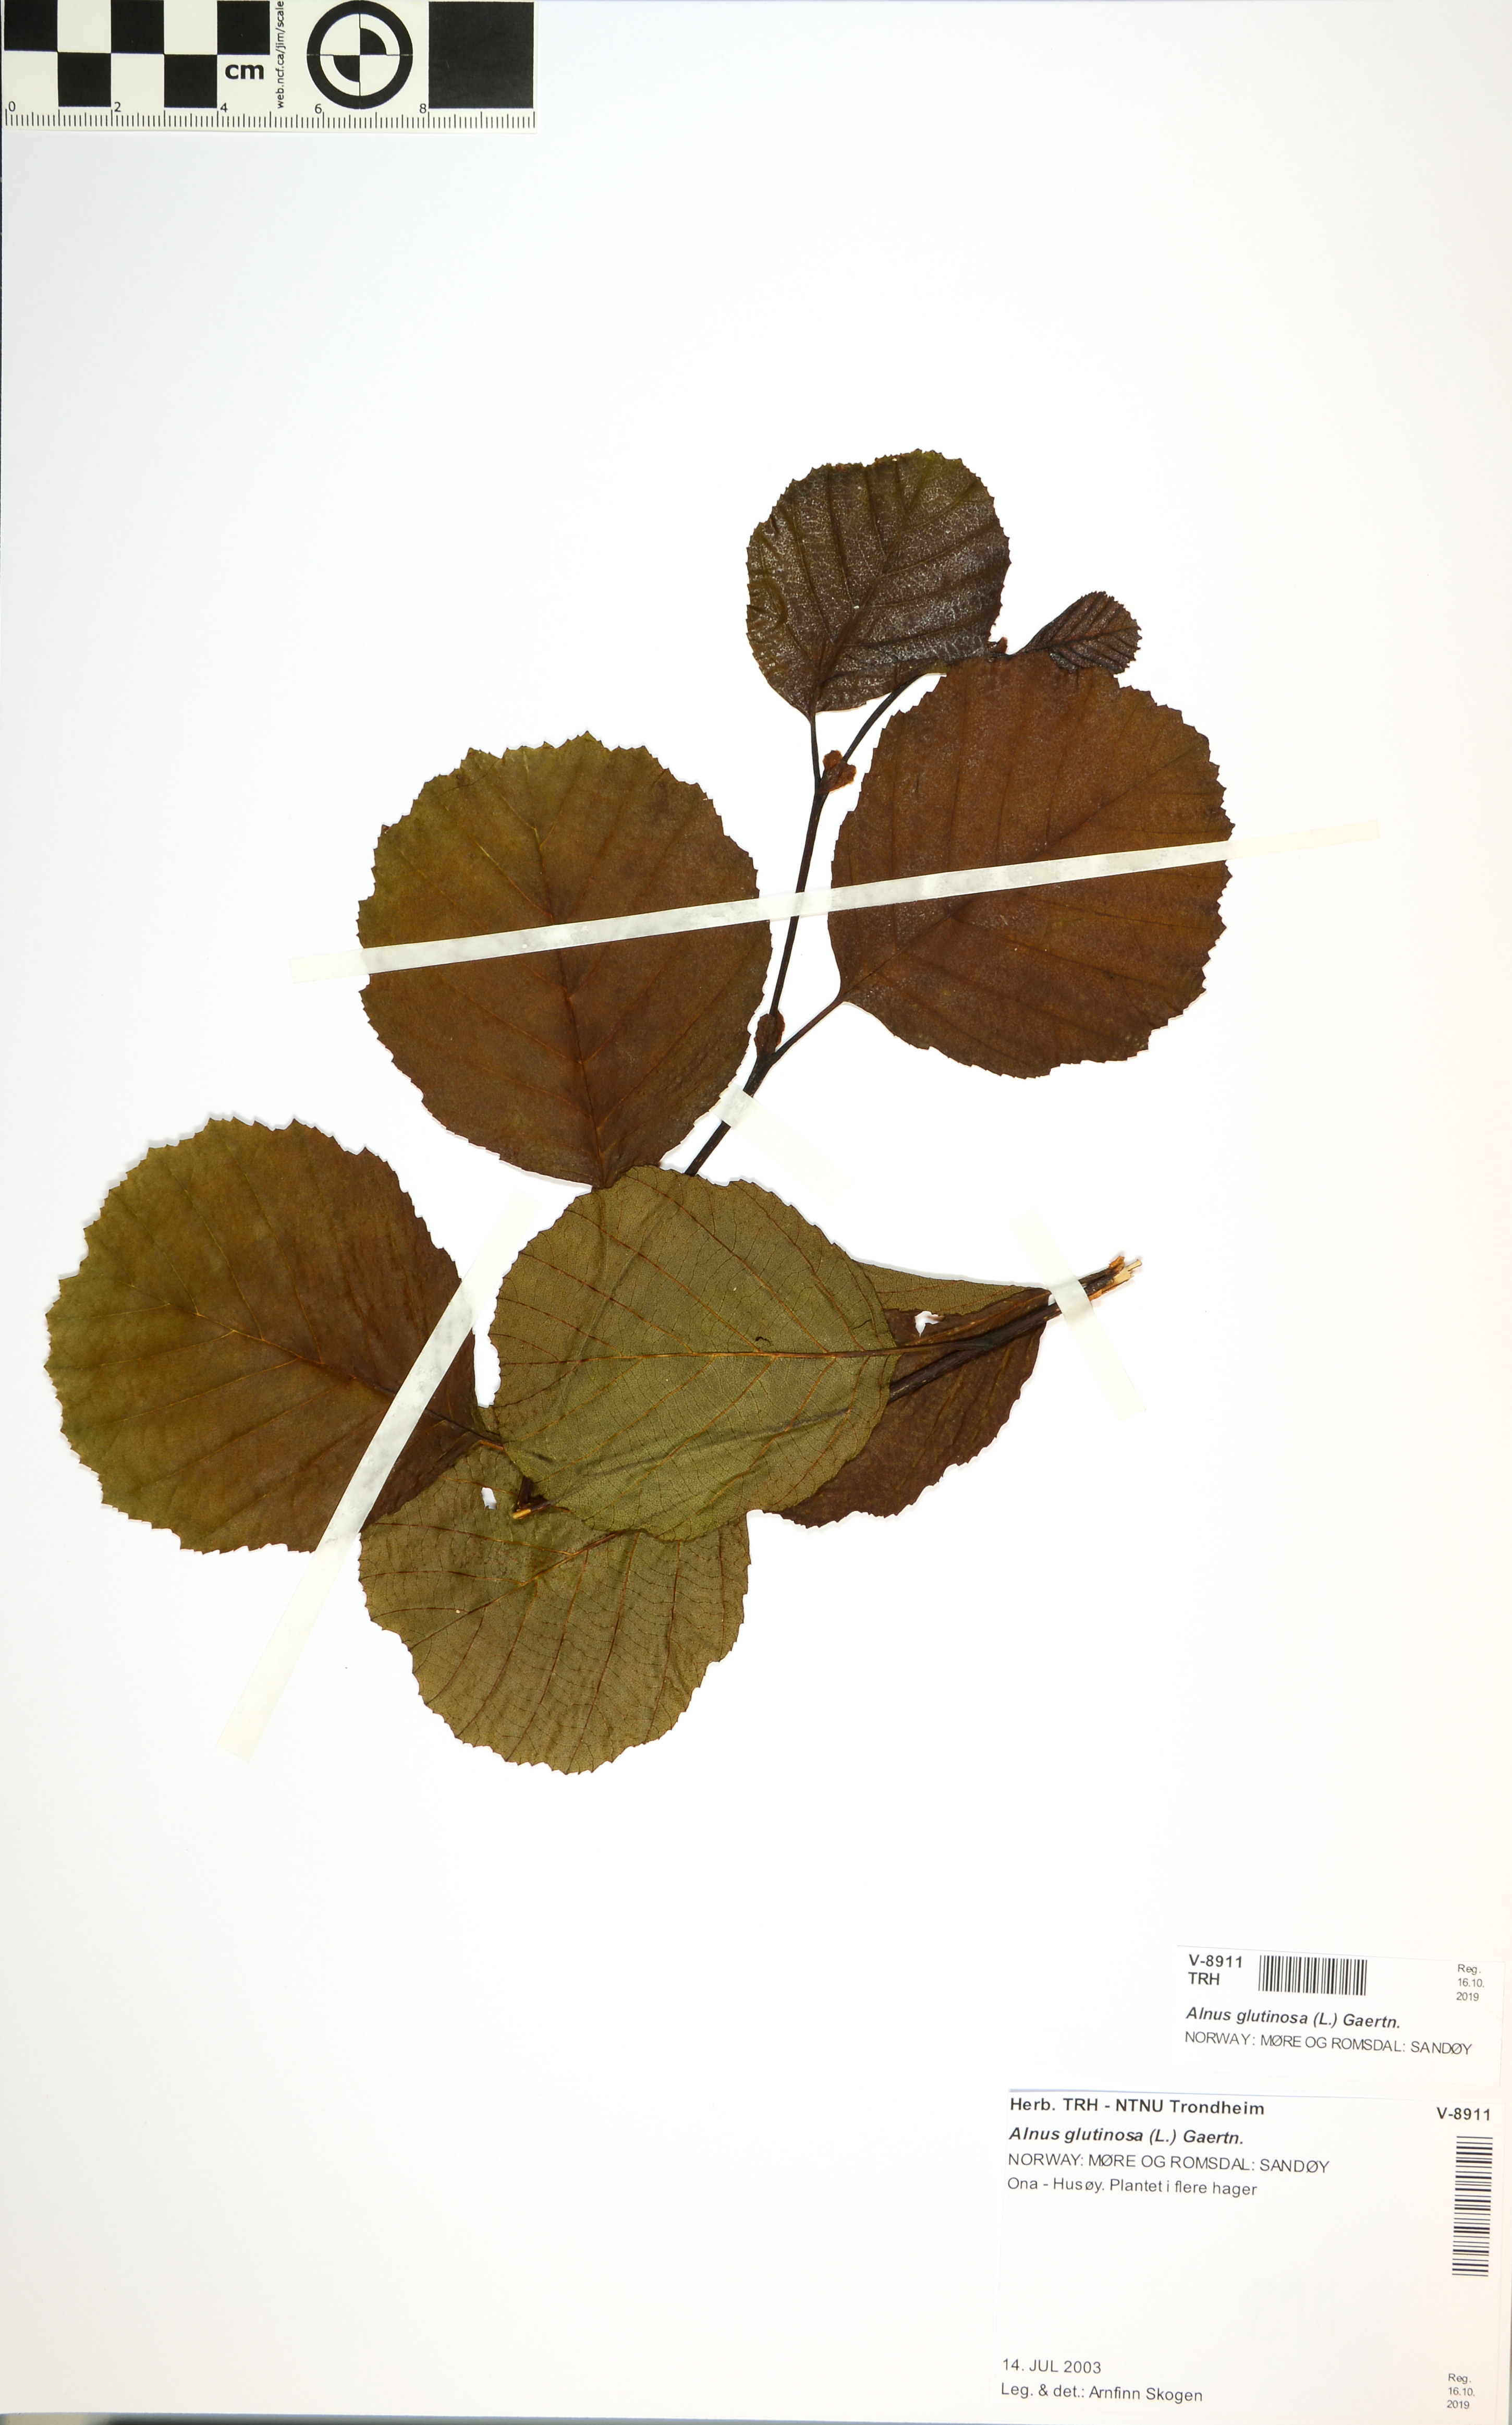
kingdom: Plantae
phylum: Tracheophyta
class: Magnoliopsida
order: Fagales
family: Betulaceae
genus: Alnus
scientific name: Alnus glutinosa
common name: Black alder
